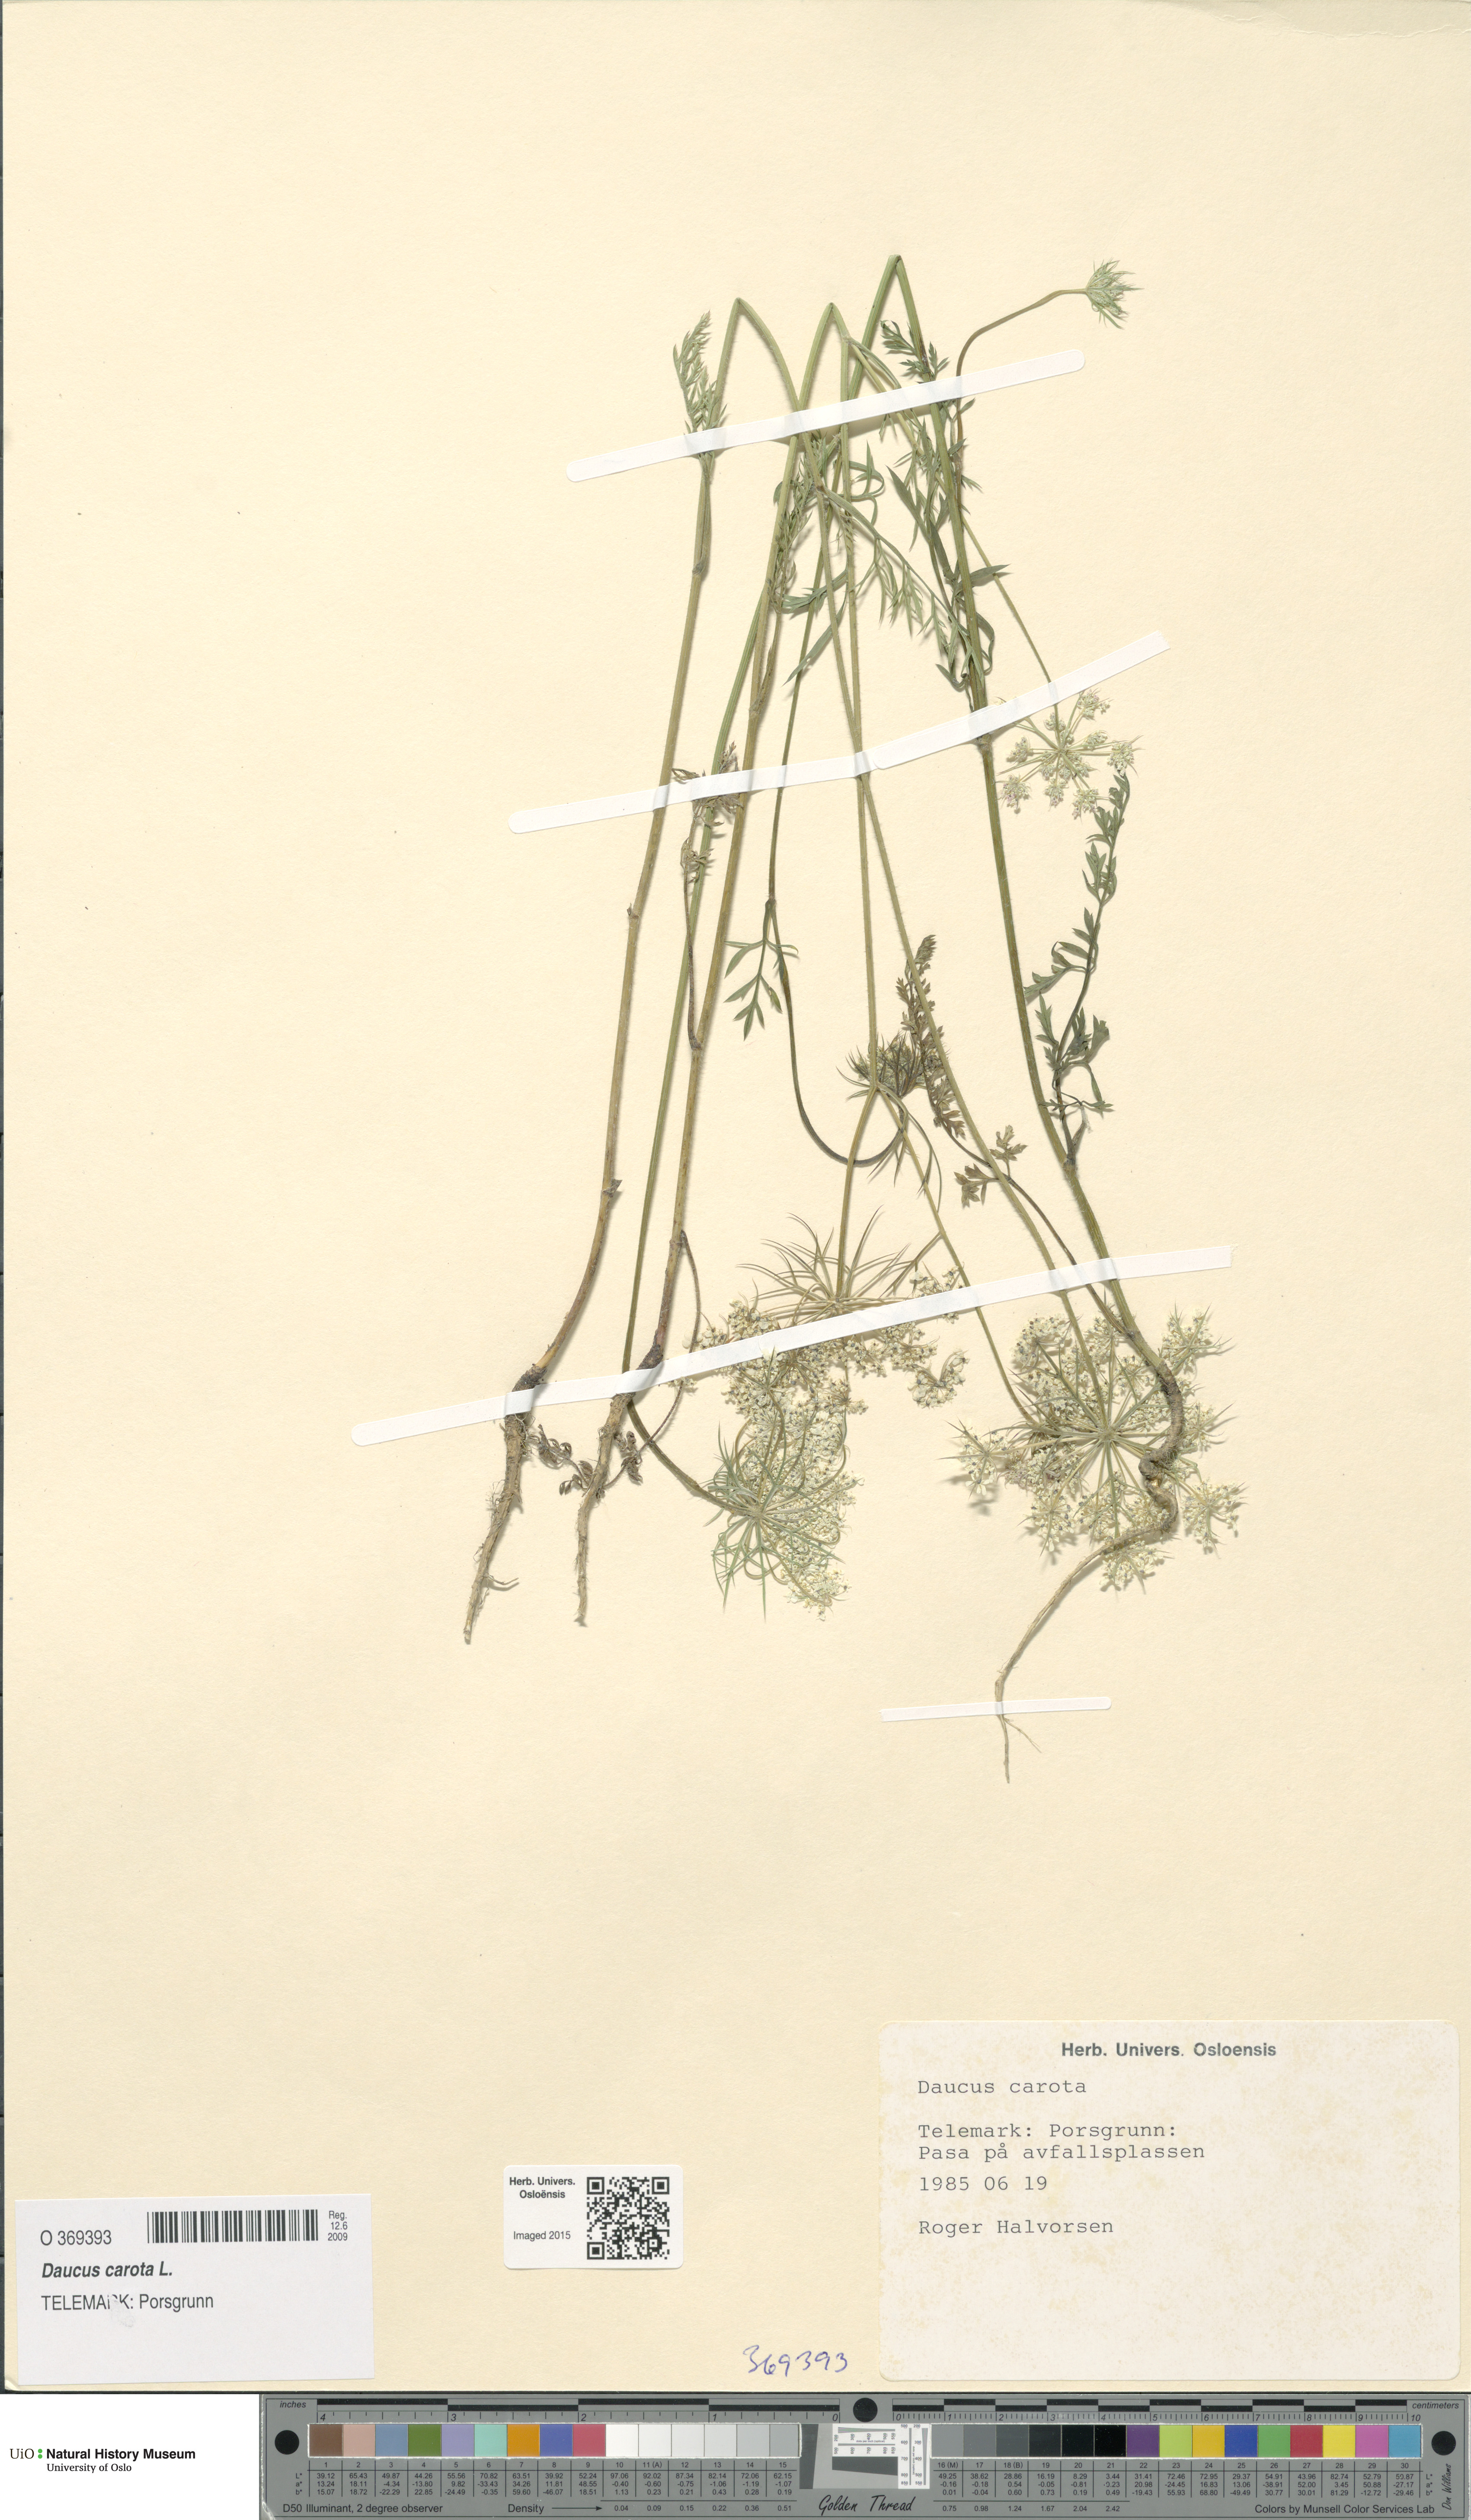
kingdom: Plantae
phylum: Tracheophyta
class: Magnoliopsida
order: Apiales
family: Apiaceae
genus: Daucus
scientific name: Daucus carota
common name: Wild carrot
